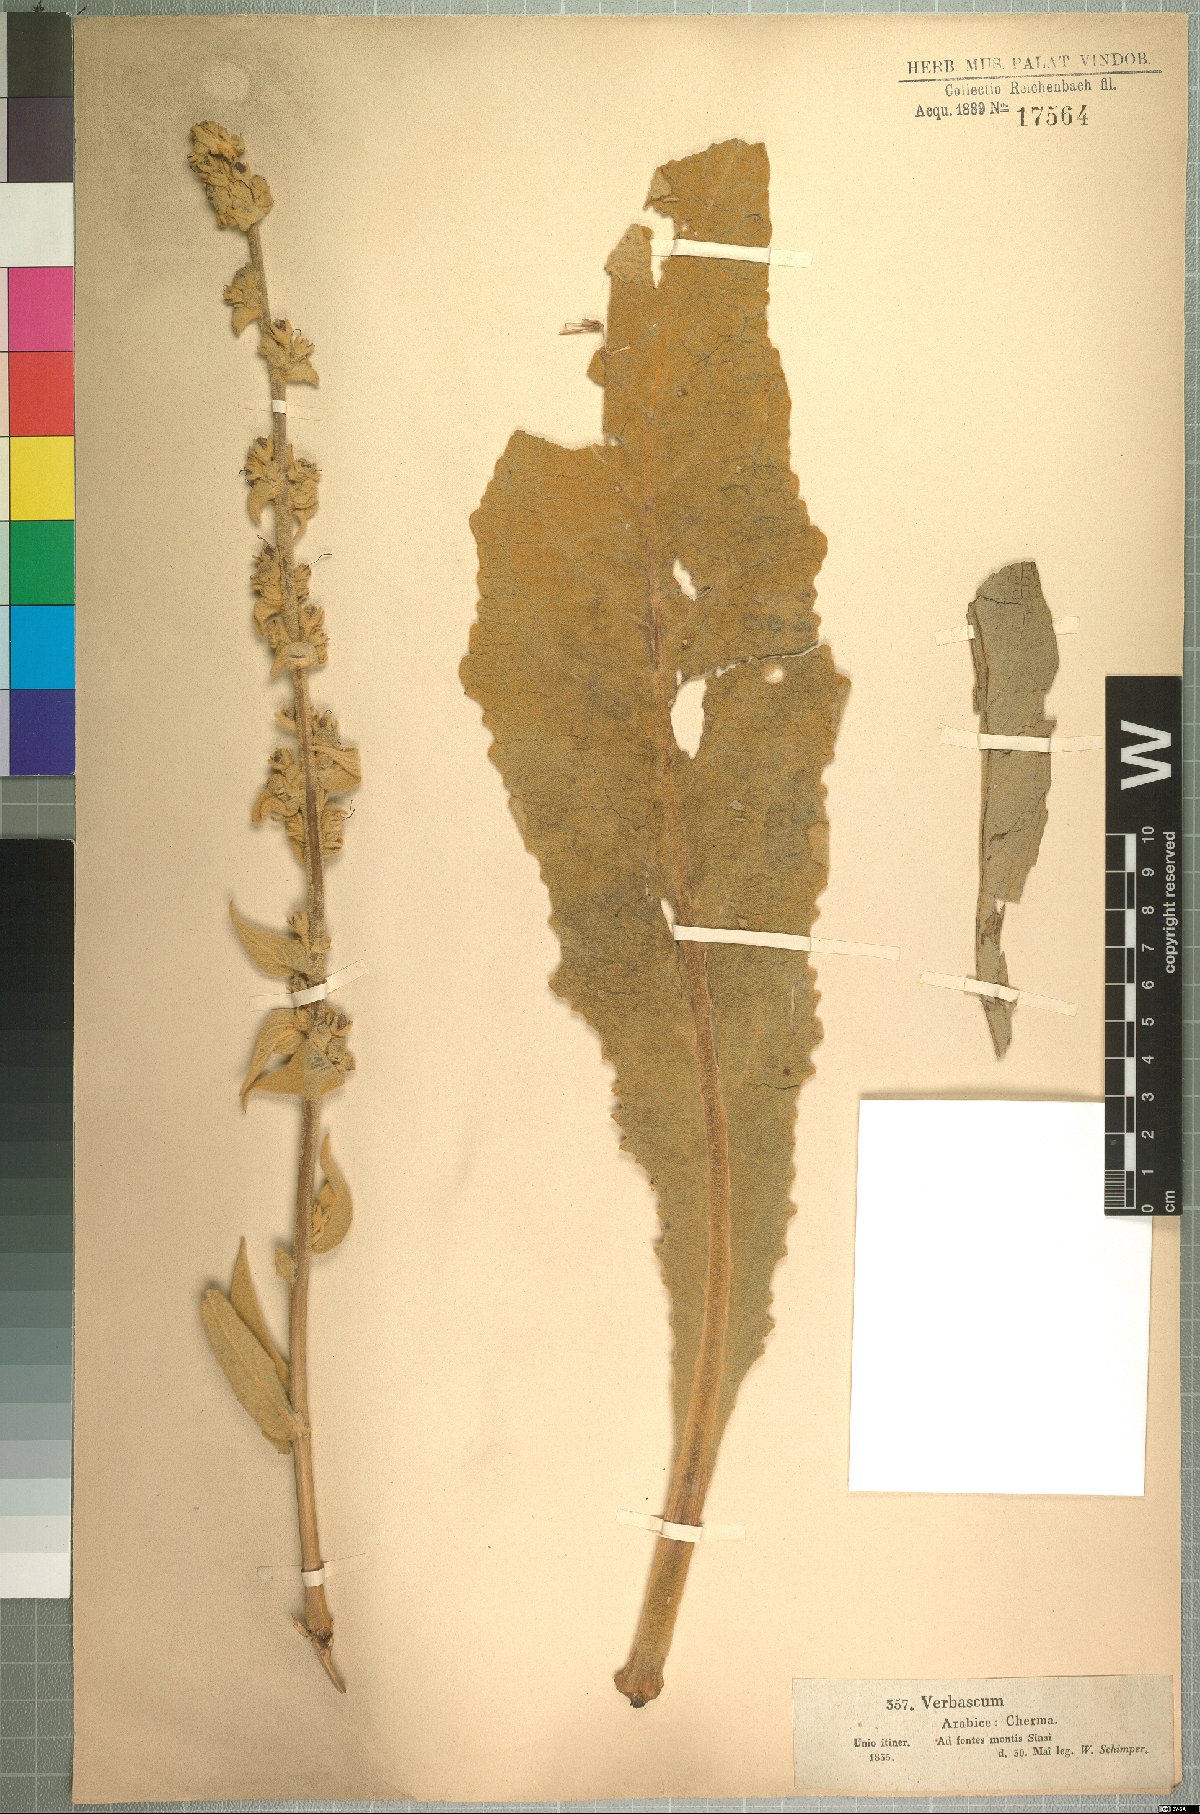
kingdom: Plantae
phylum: Tracheophyta
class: Magnoliopsida
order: Lamiales
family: Scrophulariaceae
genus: Verbascum
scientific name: Verbascum sinaiticum
